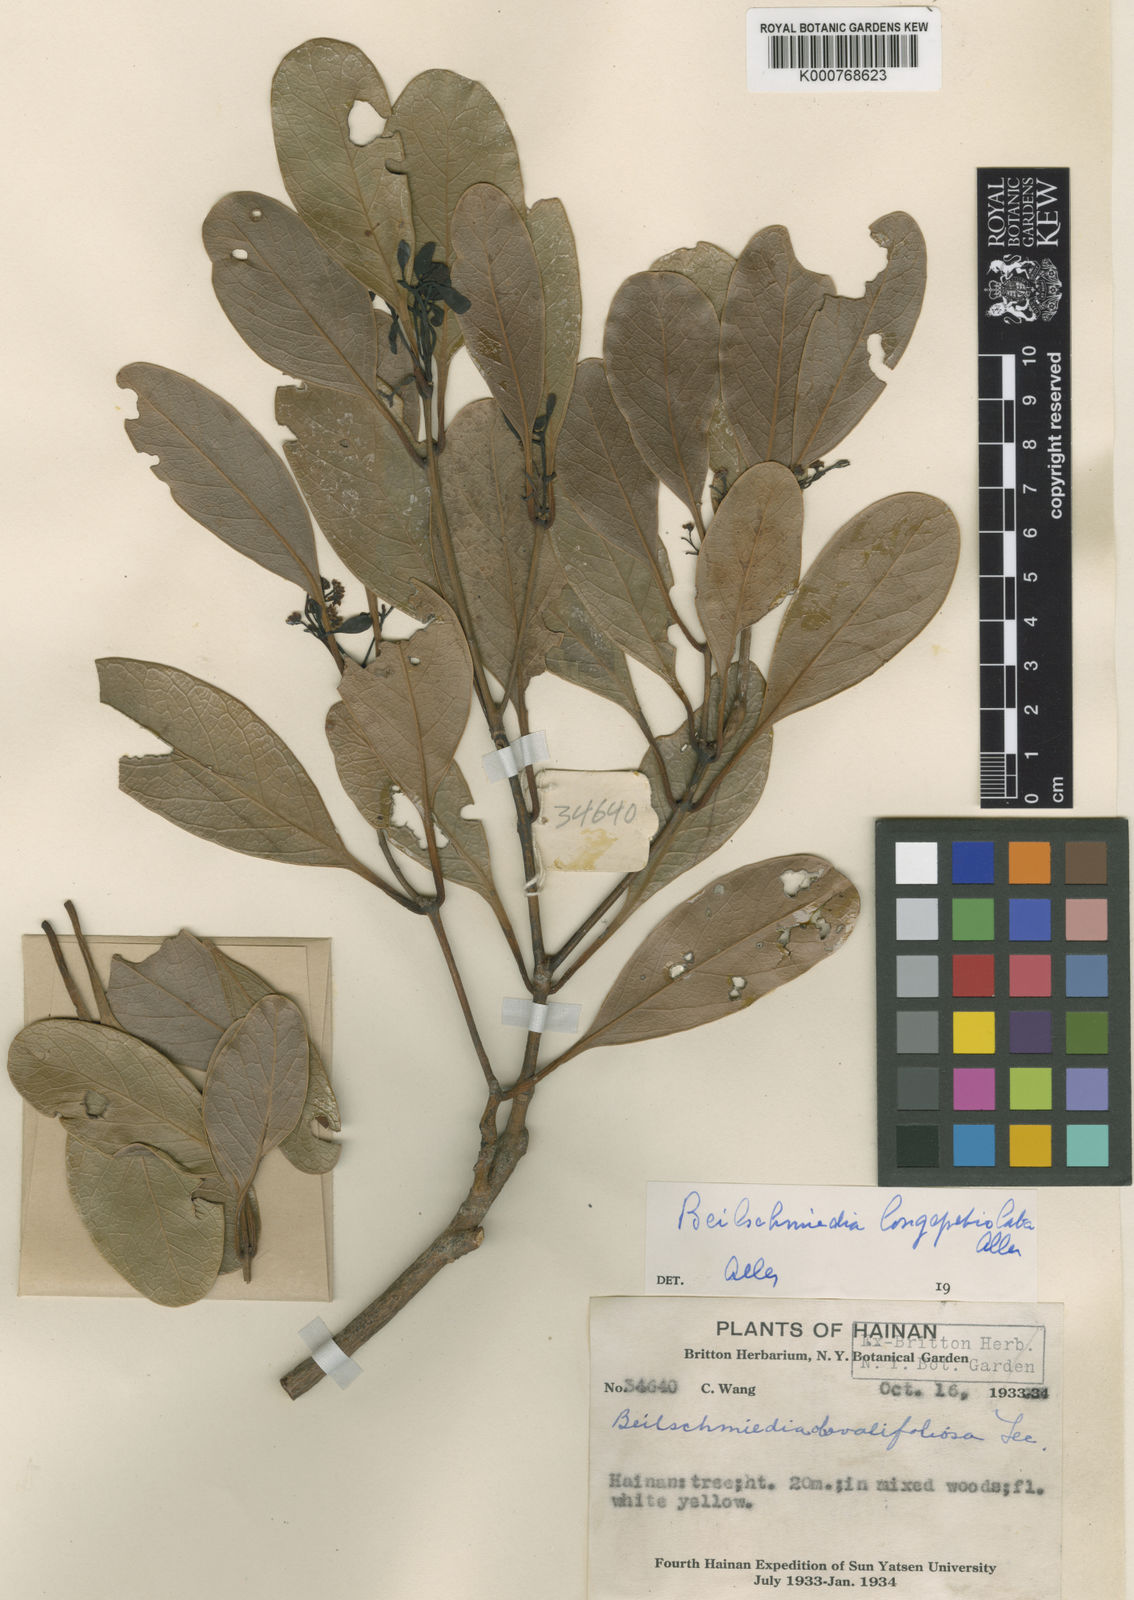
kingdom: Plantae
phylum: Tracheophyta
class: Magnoliopsida
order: Laurales
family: Lauraceae
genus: Beilschmiedia
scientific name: Beilschmiedia longepetiolata
